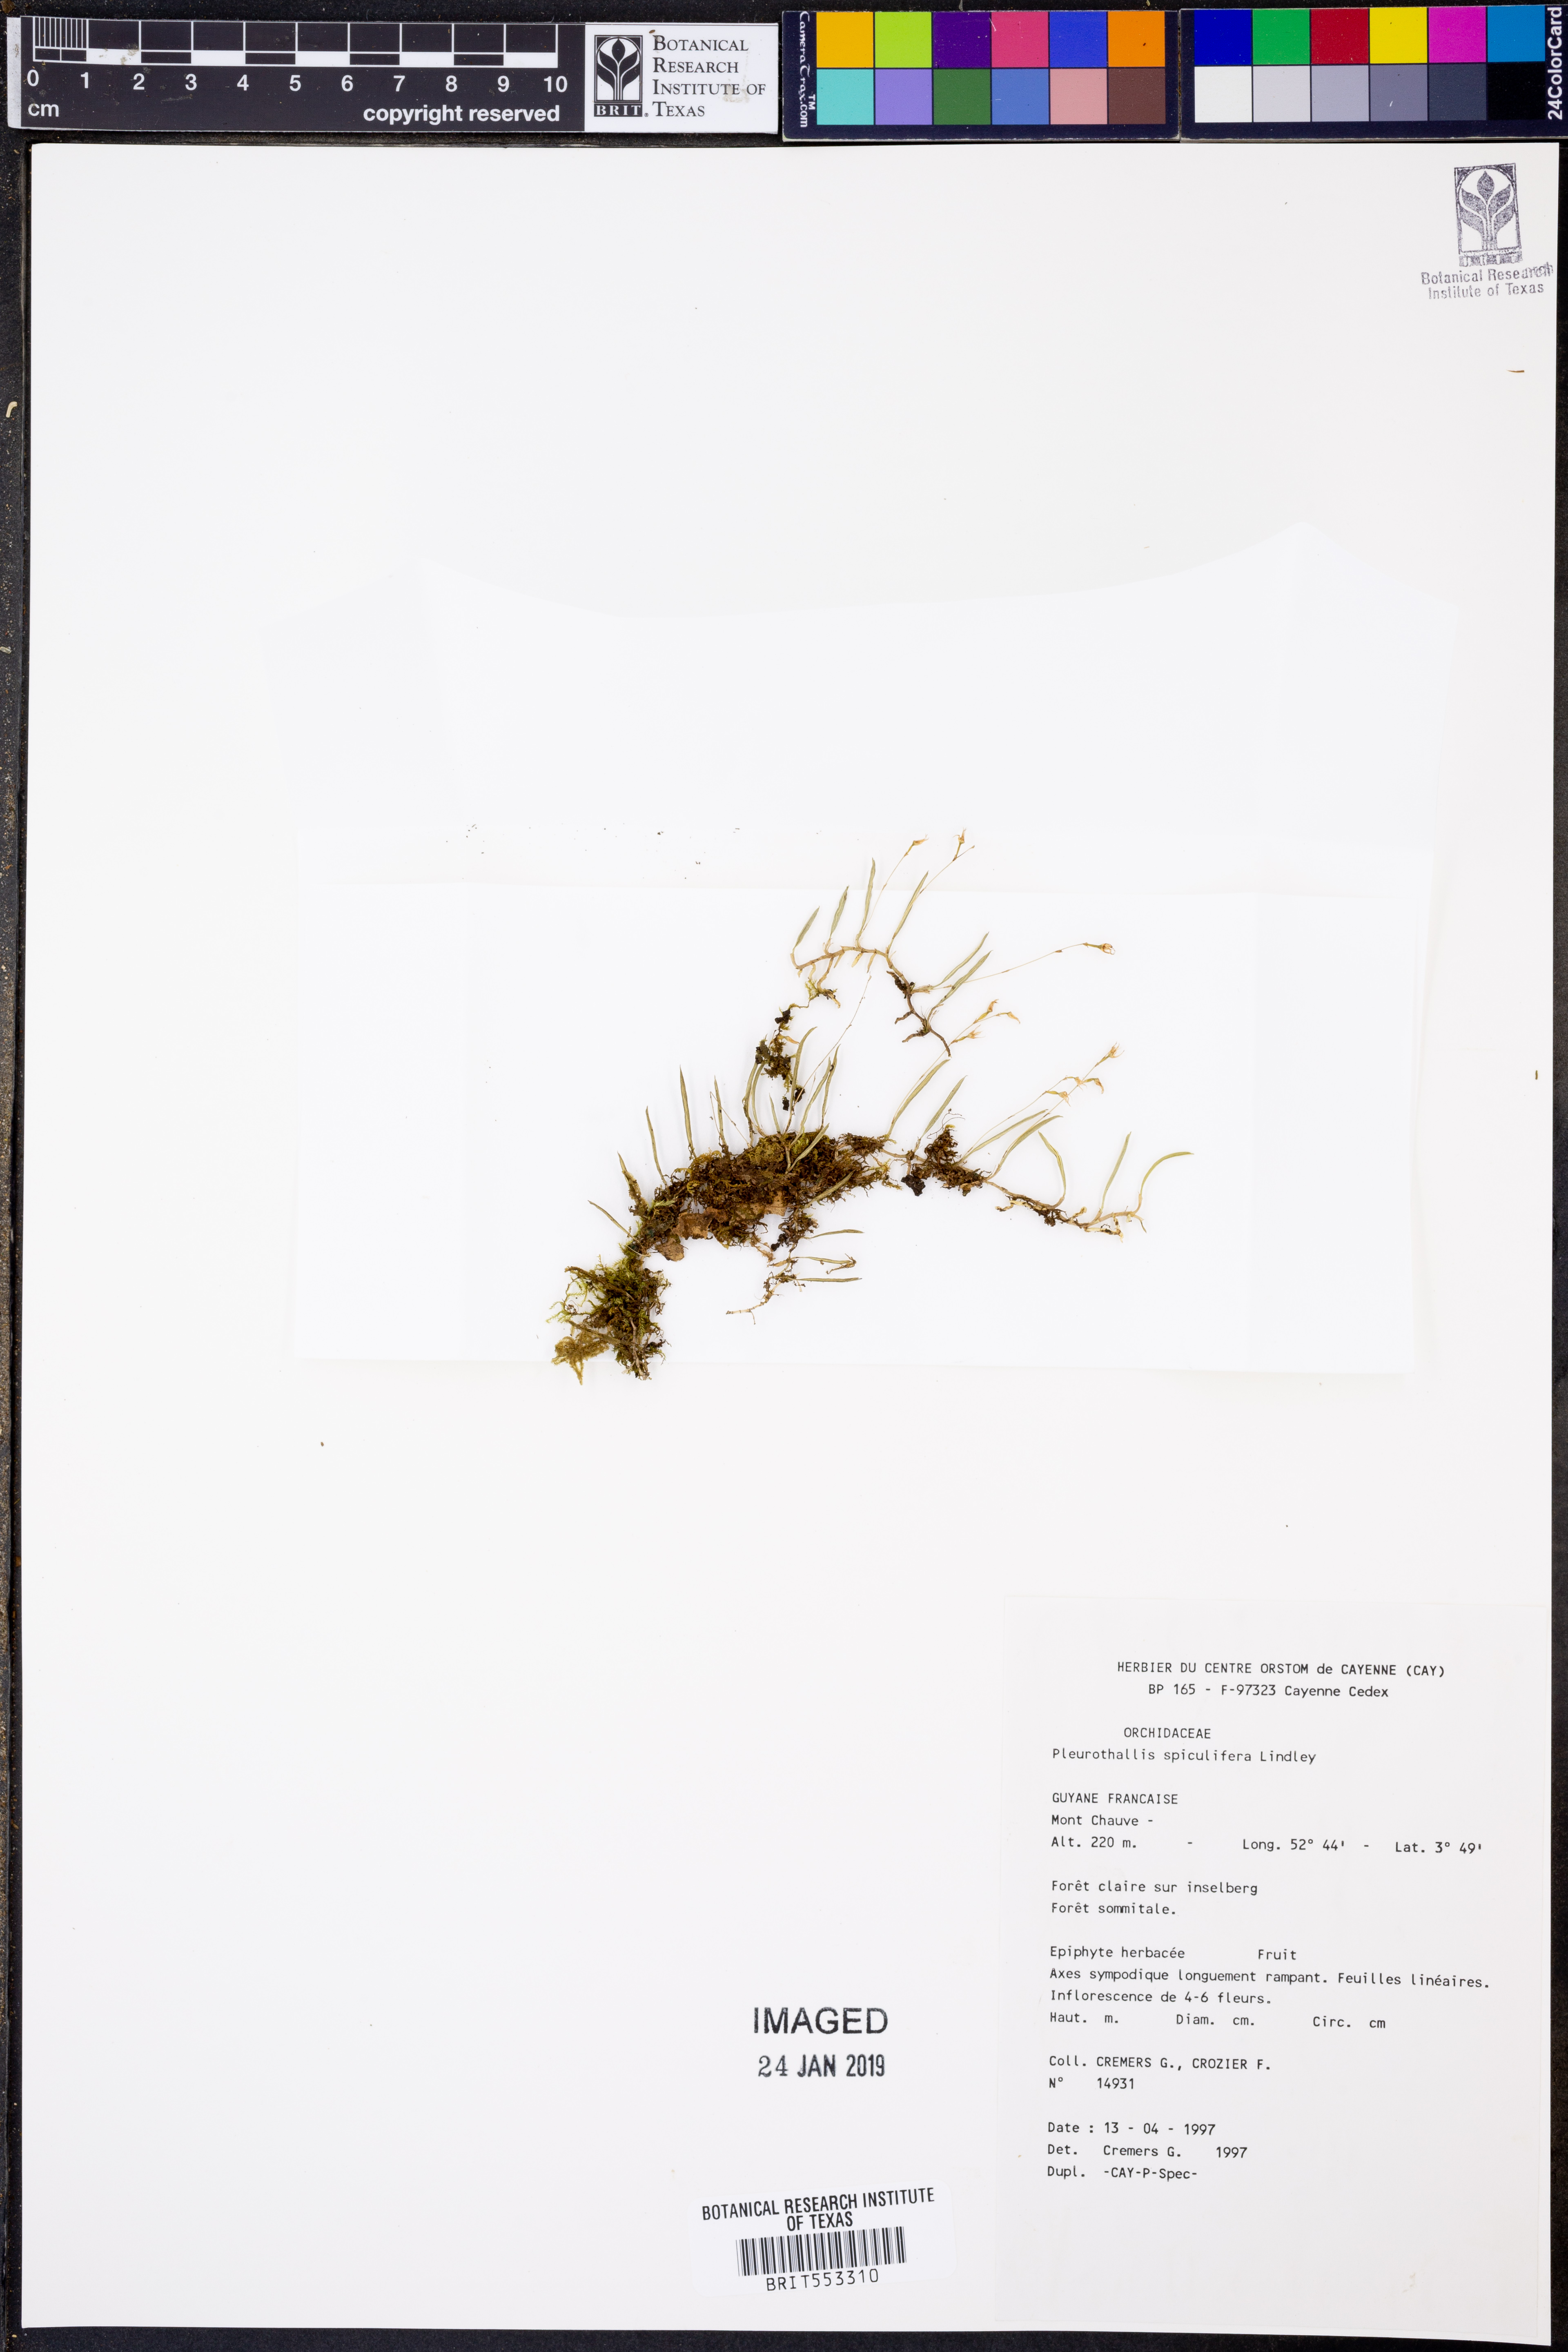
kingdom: Plantae
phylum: Tracheophyta
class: Liliopsida
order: Asparagales
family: Orchidaceae
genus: Madisonia
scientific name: Madisonia spiculifera
